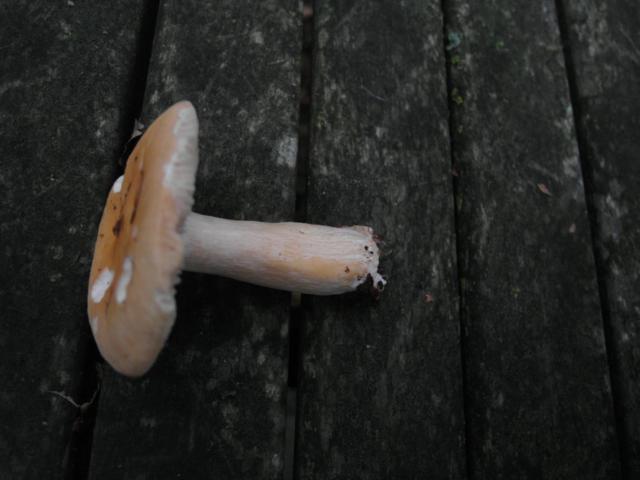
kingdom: Fungi
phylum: Basidiomycota
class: Agaricomycetes
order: Russulales
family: Russulaceae
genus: Russula
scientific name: Russula fellea
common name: galde-skørhat
